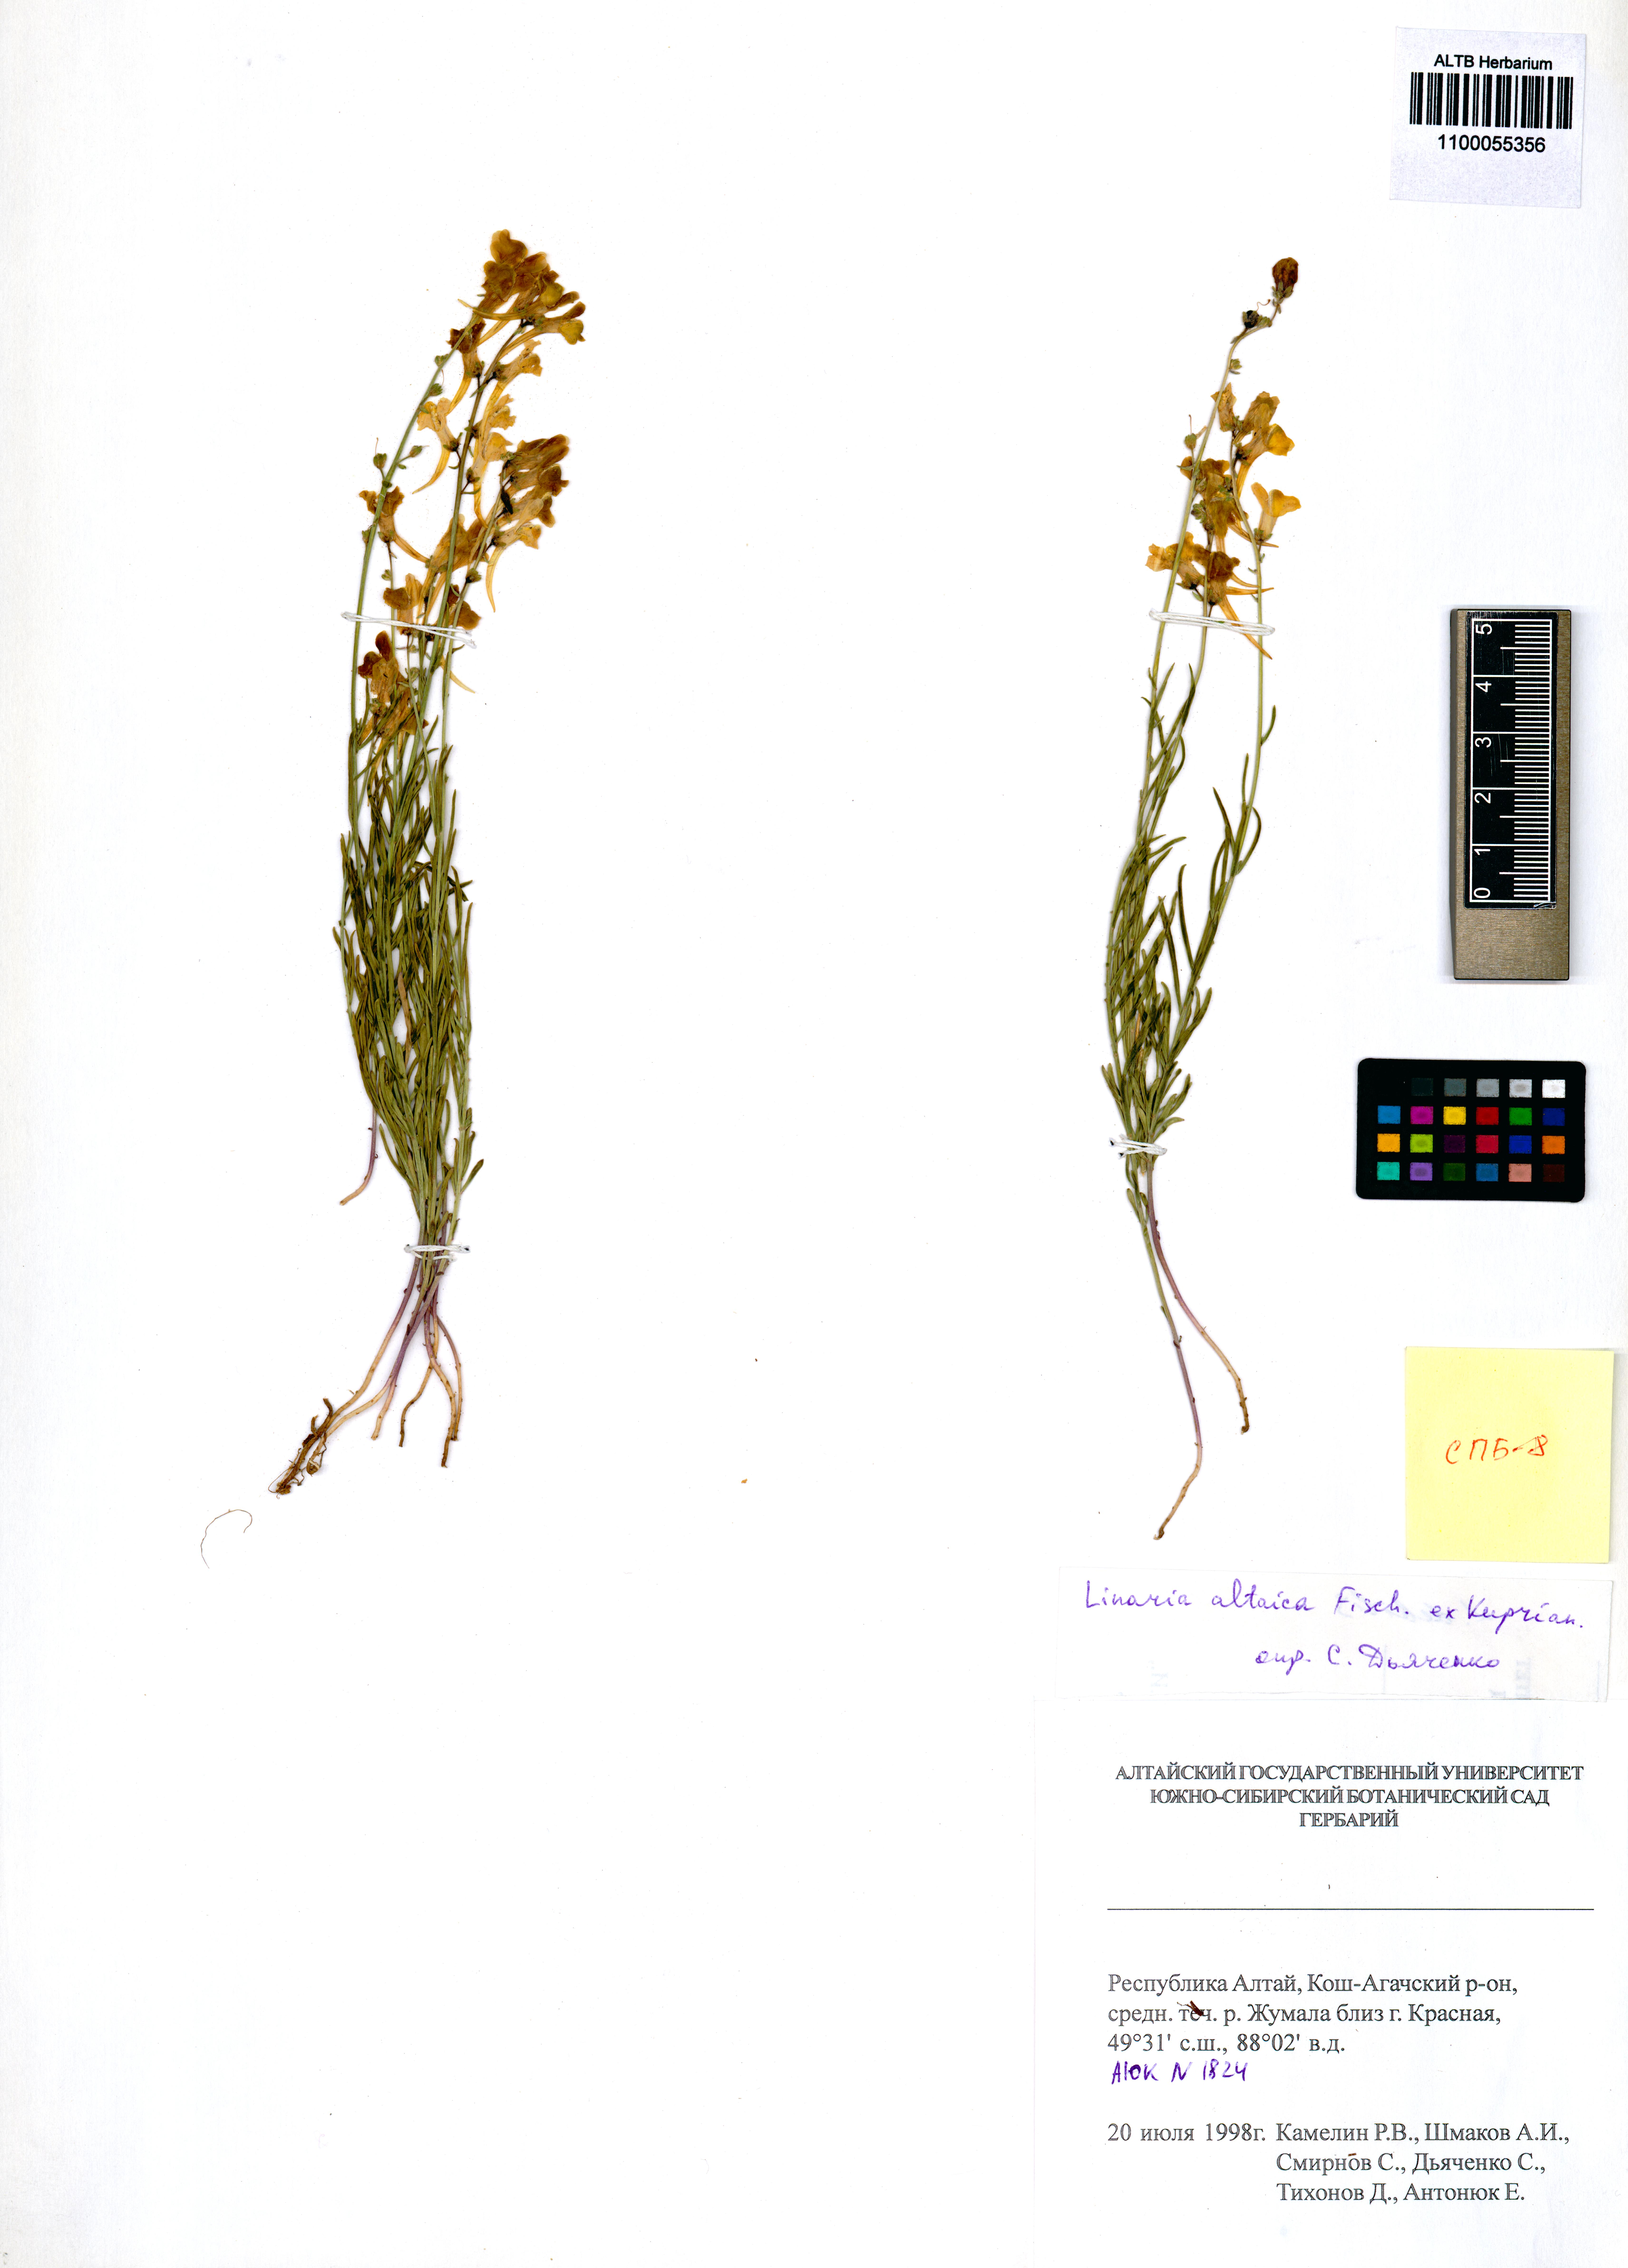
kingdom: Plantae
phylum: Tracheophyta
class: Magnoliopsida
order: Lamiales
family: Plantaginaceae
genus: Linaria
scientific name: Linaria altaica
